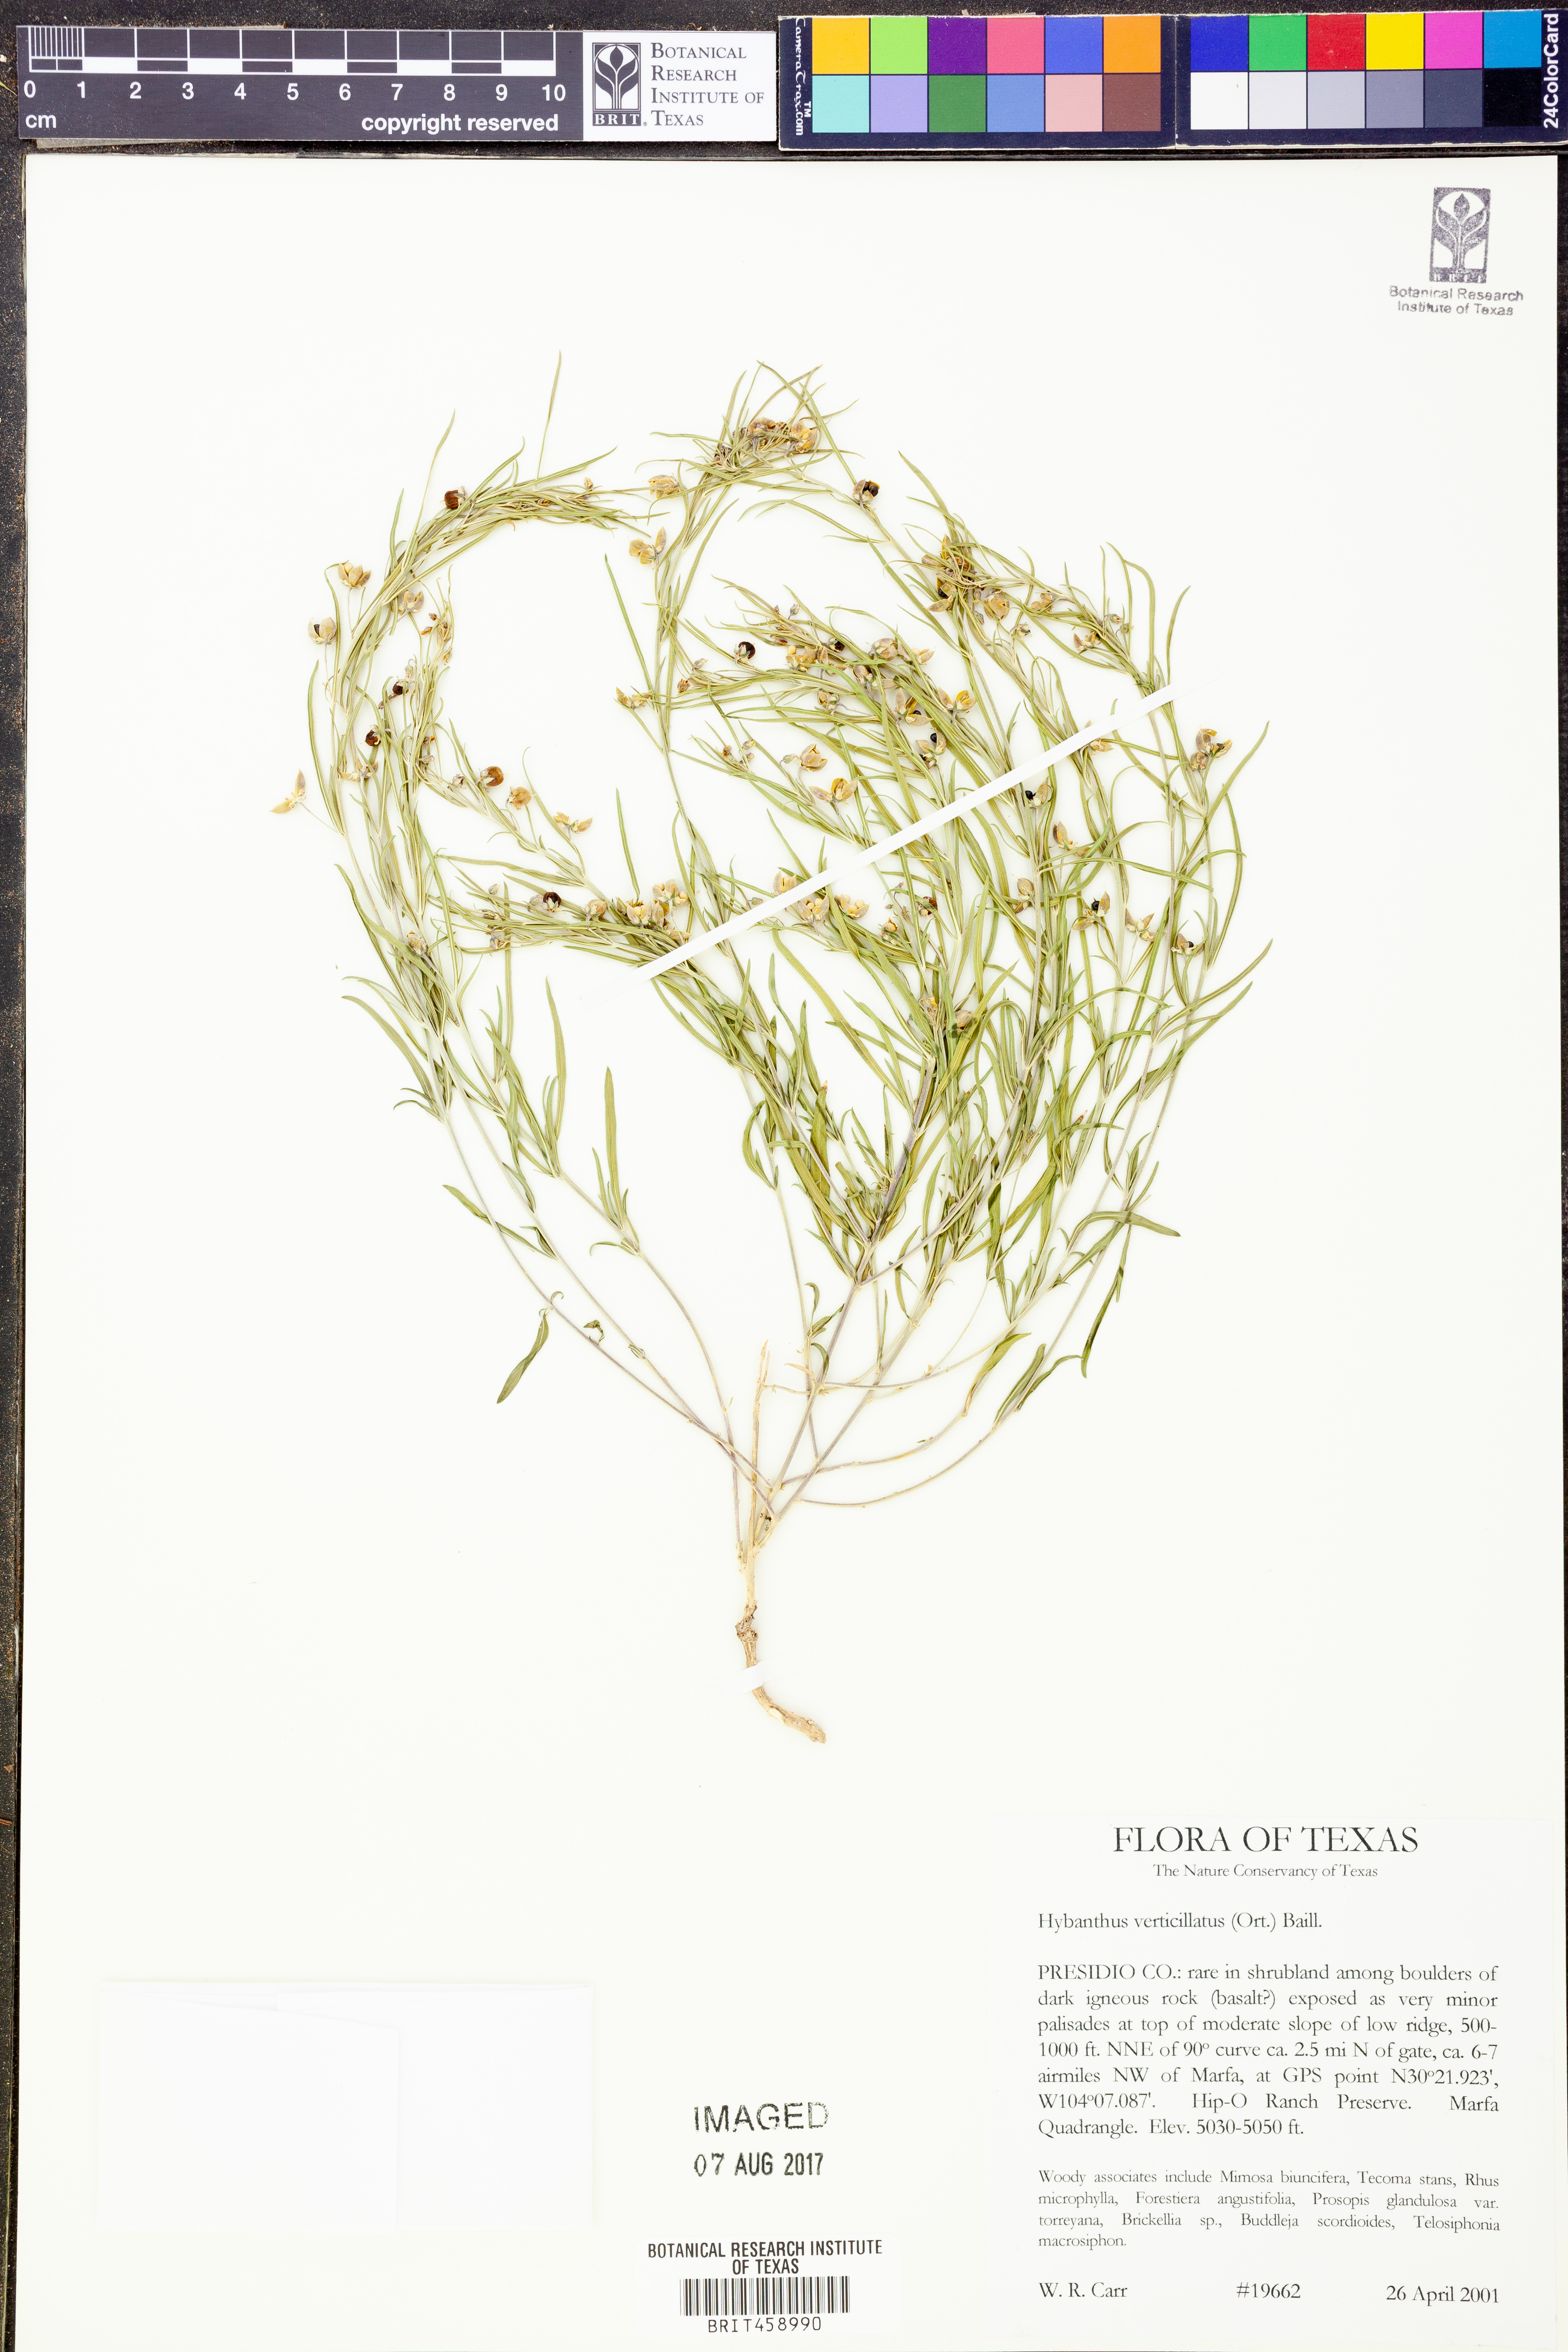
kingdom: Plantae
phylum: Tracheophyta
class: Magnoliopsida
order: Malpighiales
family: Violaceae
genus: Pombalia
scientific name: Pombalia verticillata
